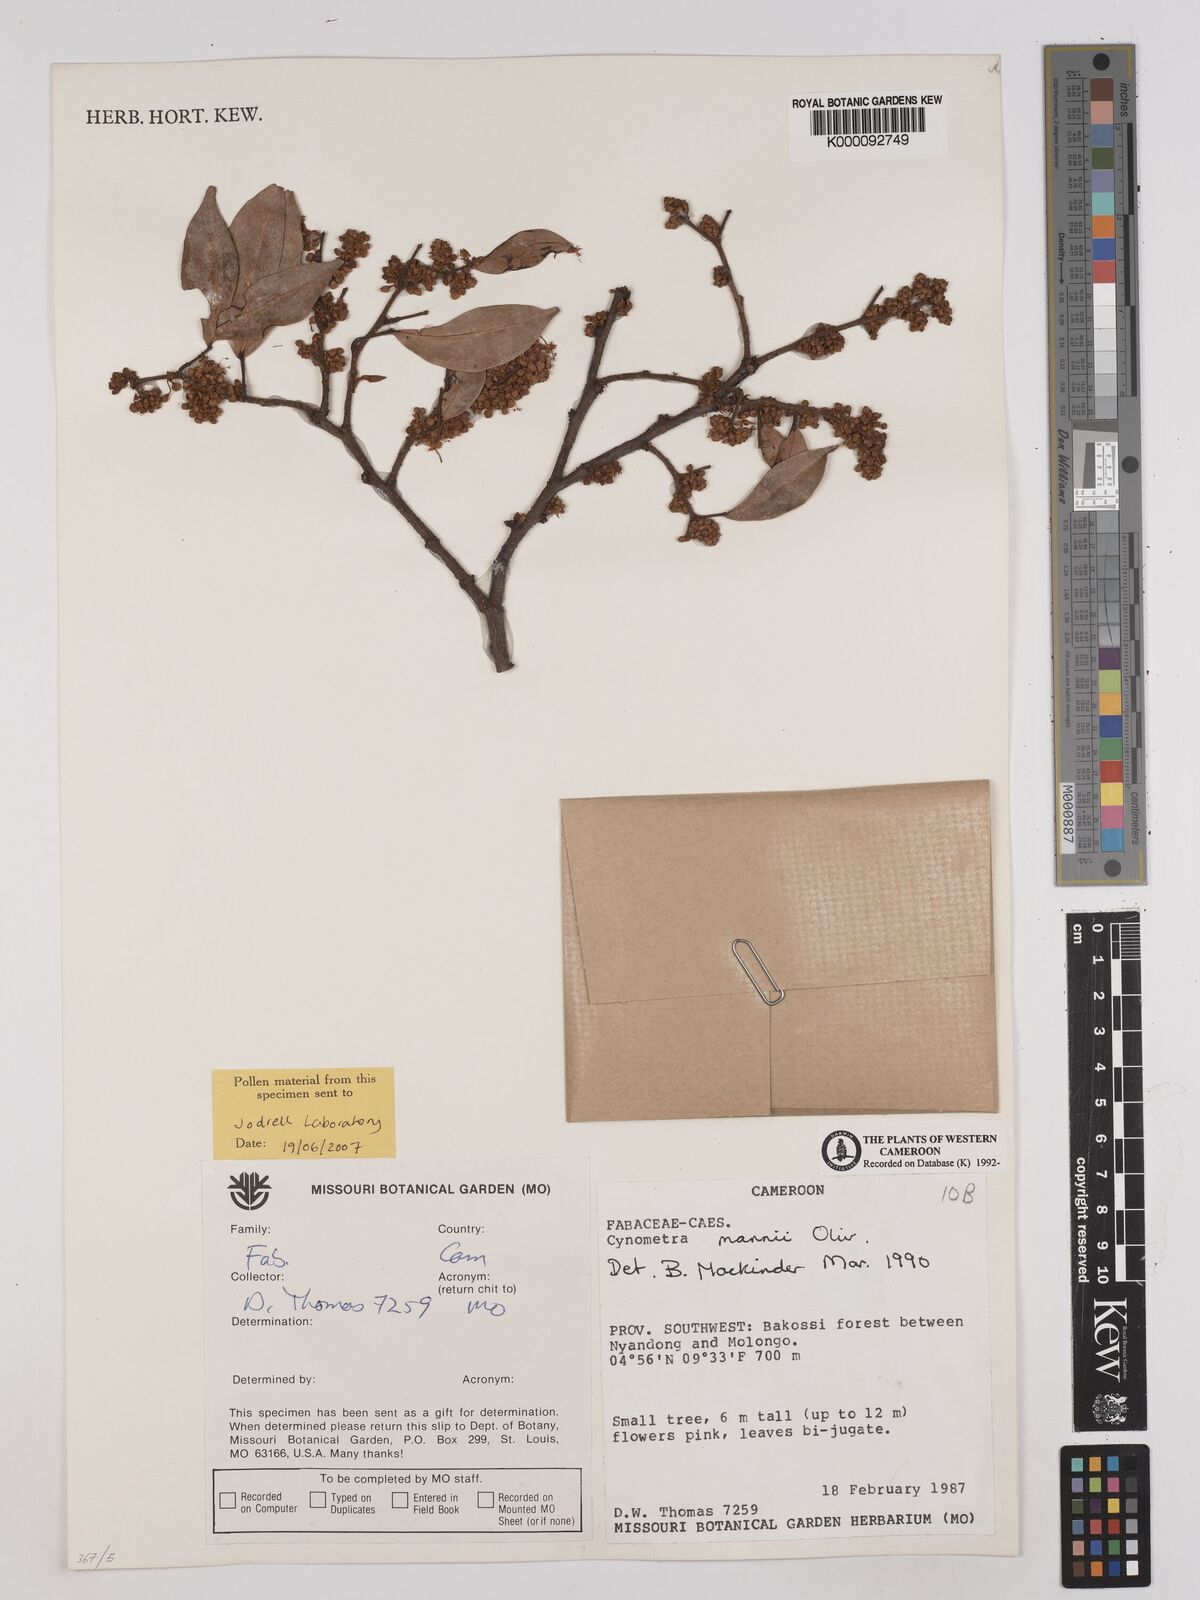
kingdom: Plantae
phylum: Tracheophyta
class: Magnoliopsida
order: Fabales
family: Fabaceae
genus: Cynometra
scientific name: Cynometra mannii
